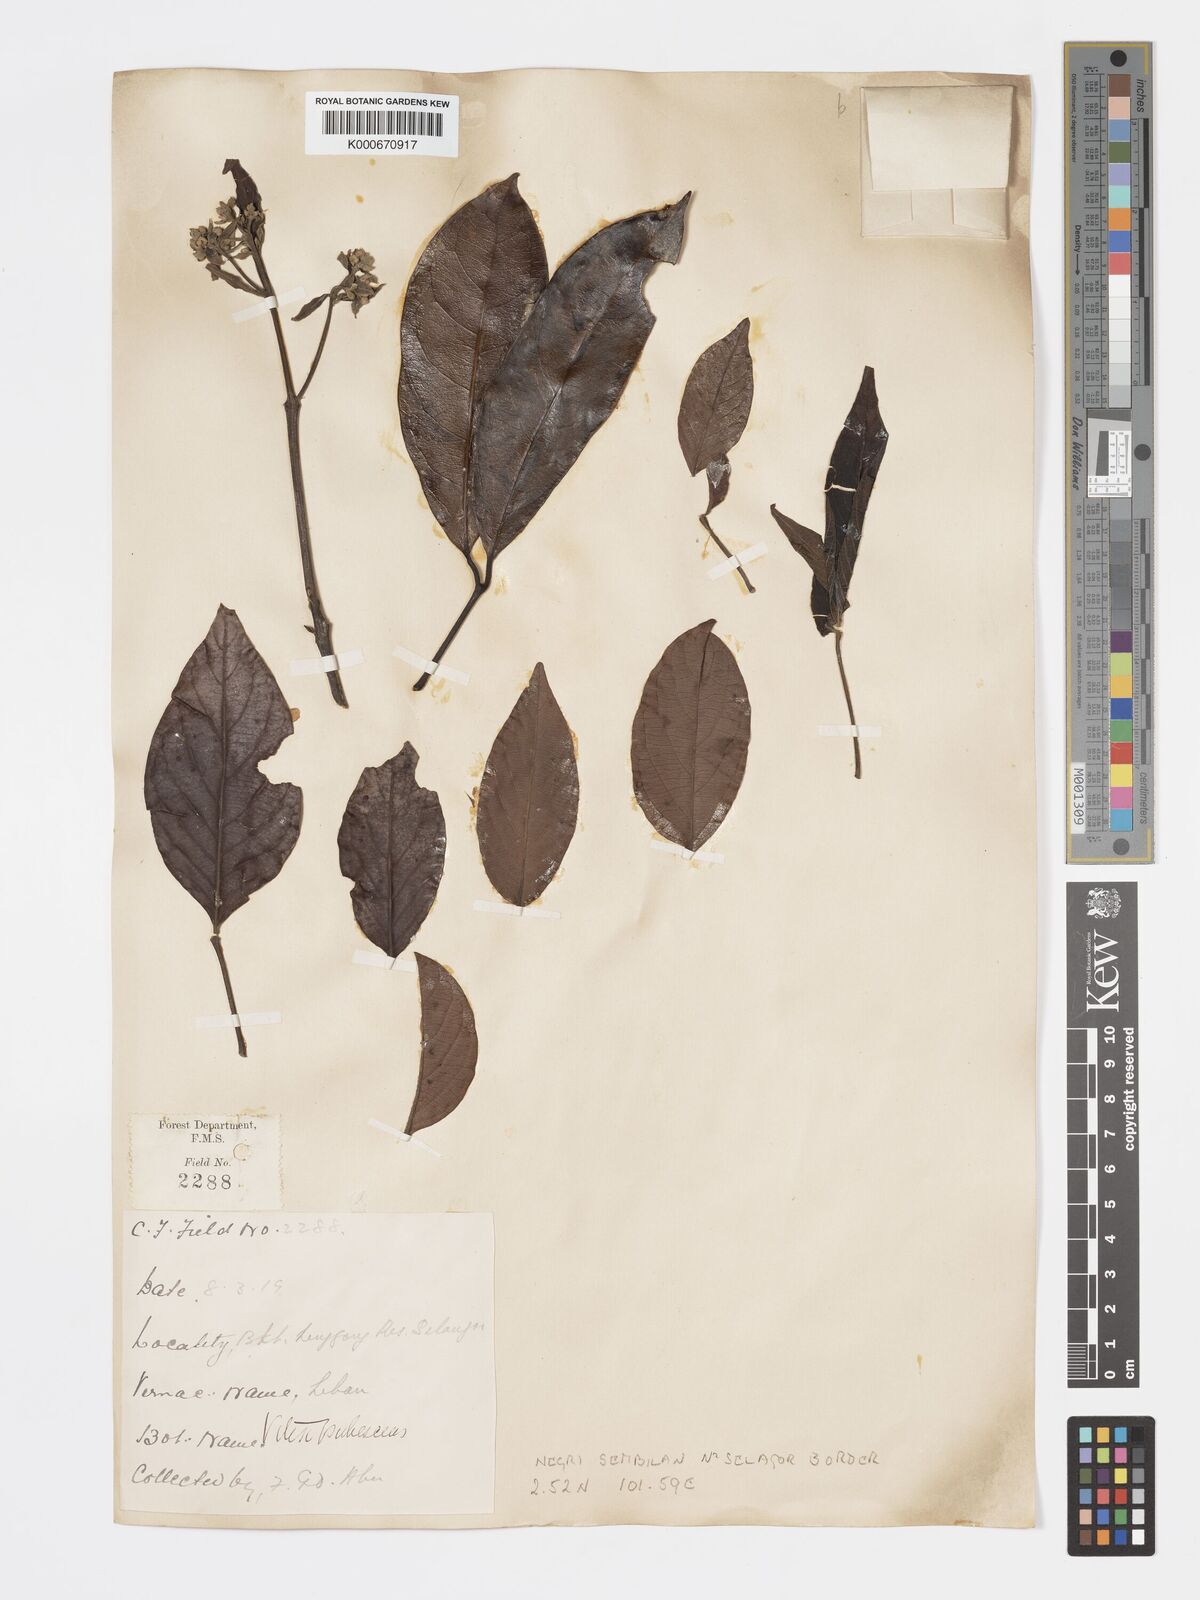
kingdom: Plantae
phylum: Tracheophyta
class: Magnoliopsida
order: Lamiales
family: Lamiaceae
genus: Vitex
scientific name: Vitex pinnata
